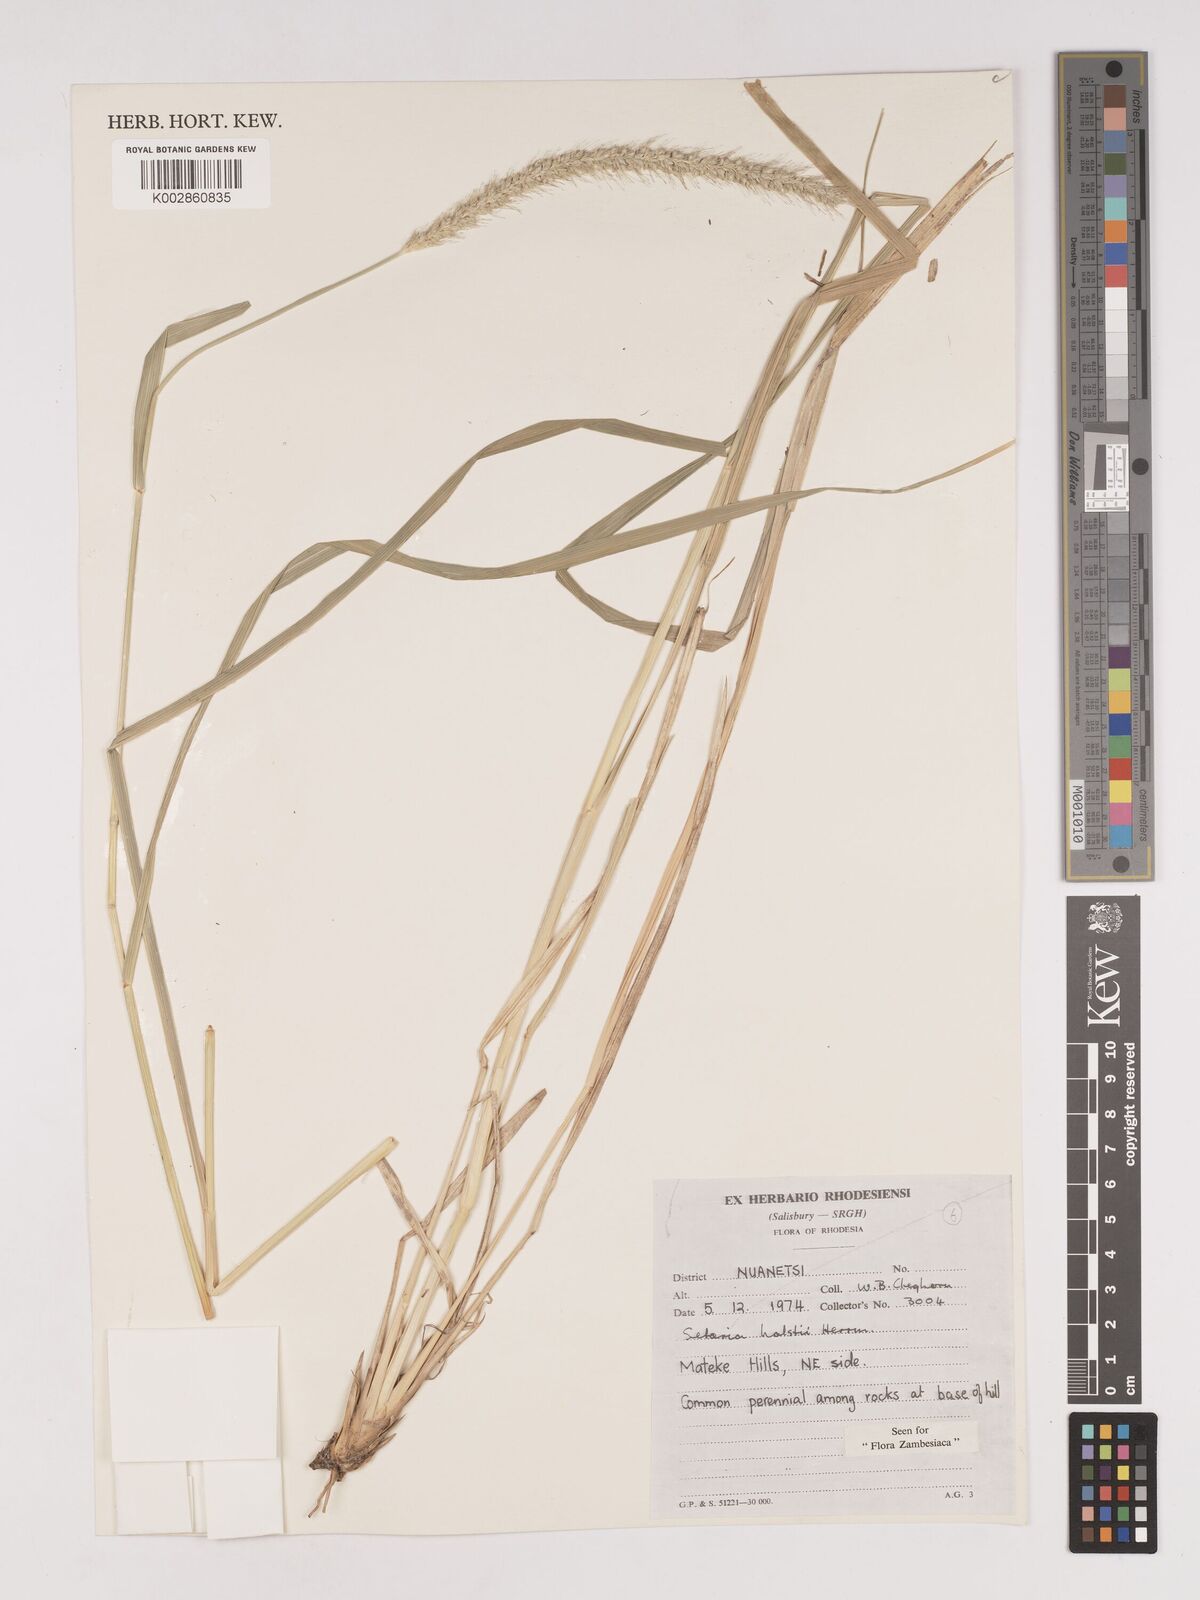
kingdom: Plantae
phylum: Tracheophyta
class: Liliopsida
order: Poales
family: Poaceae
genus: Setaria
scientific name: Setaria incrassata
